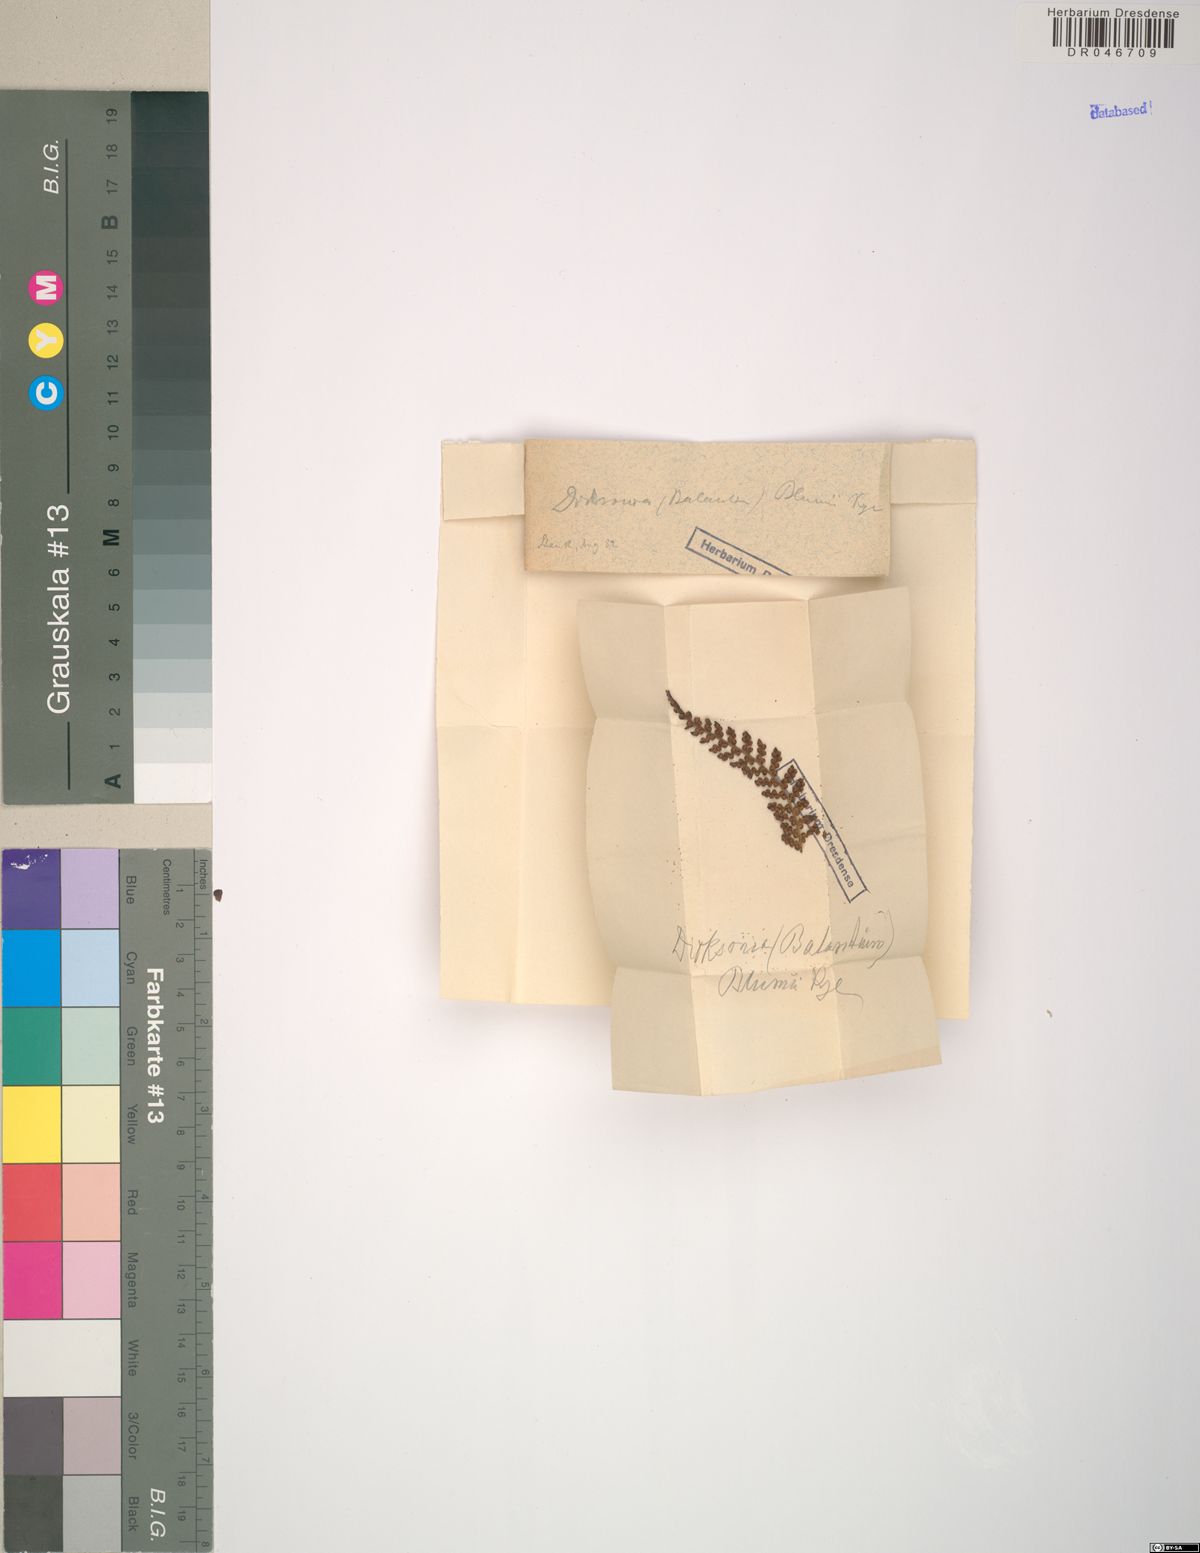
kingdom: Plantae
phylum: Tracheophyta
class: Polypodiopsida
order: Cyatheales
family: Dicksoniaceae
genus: Dicksonia
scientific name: Dicksonia blumei
